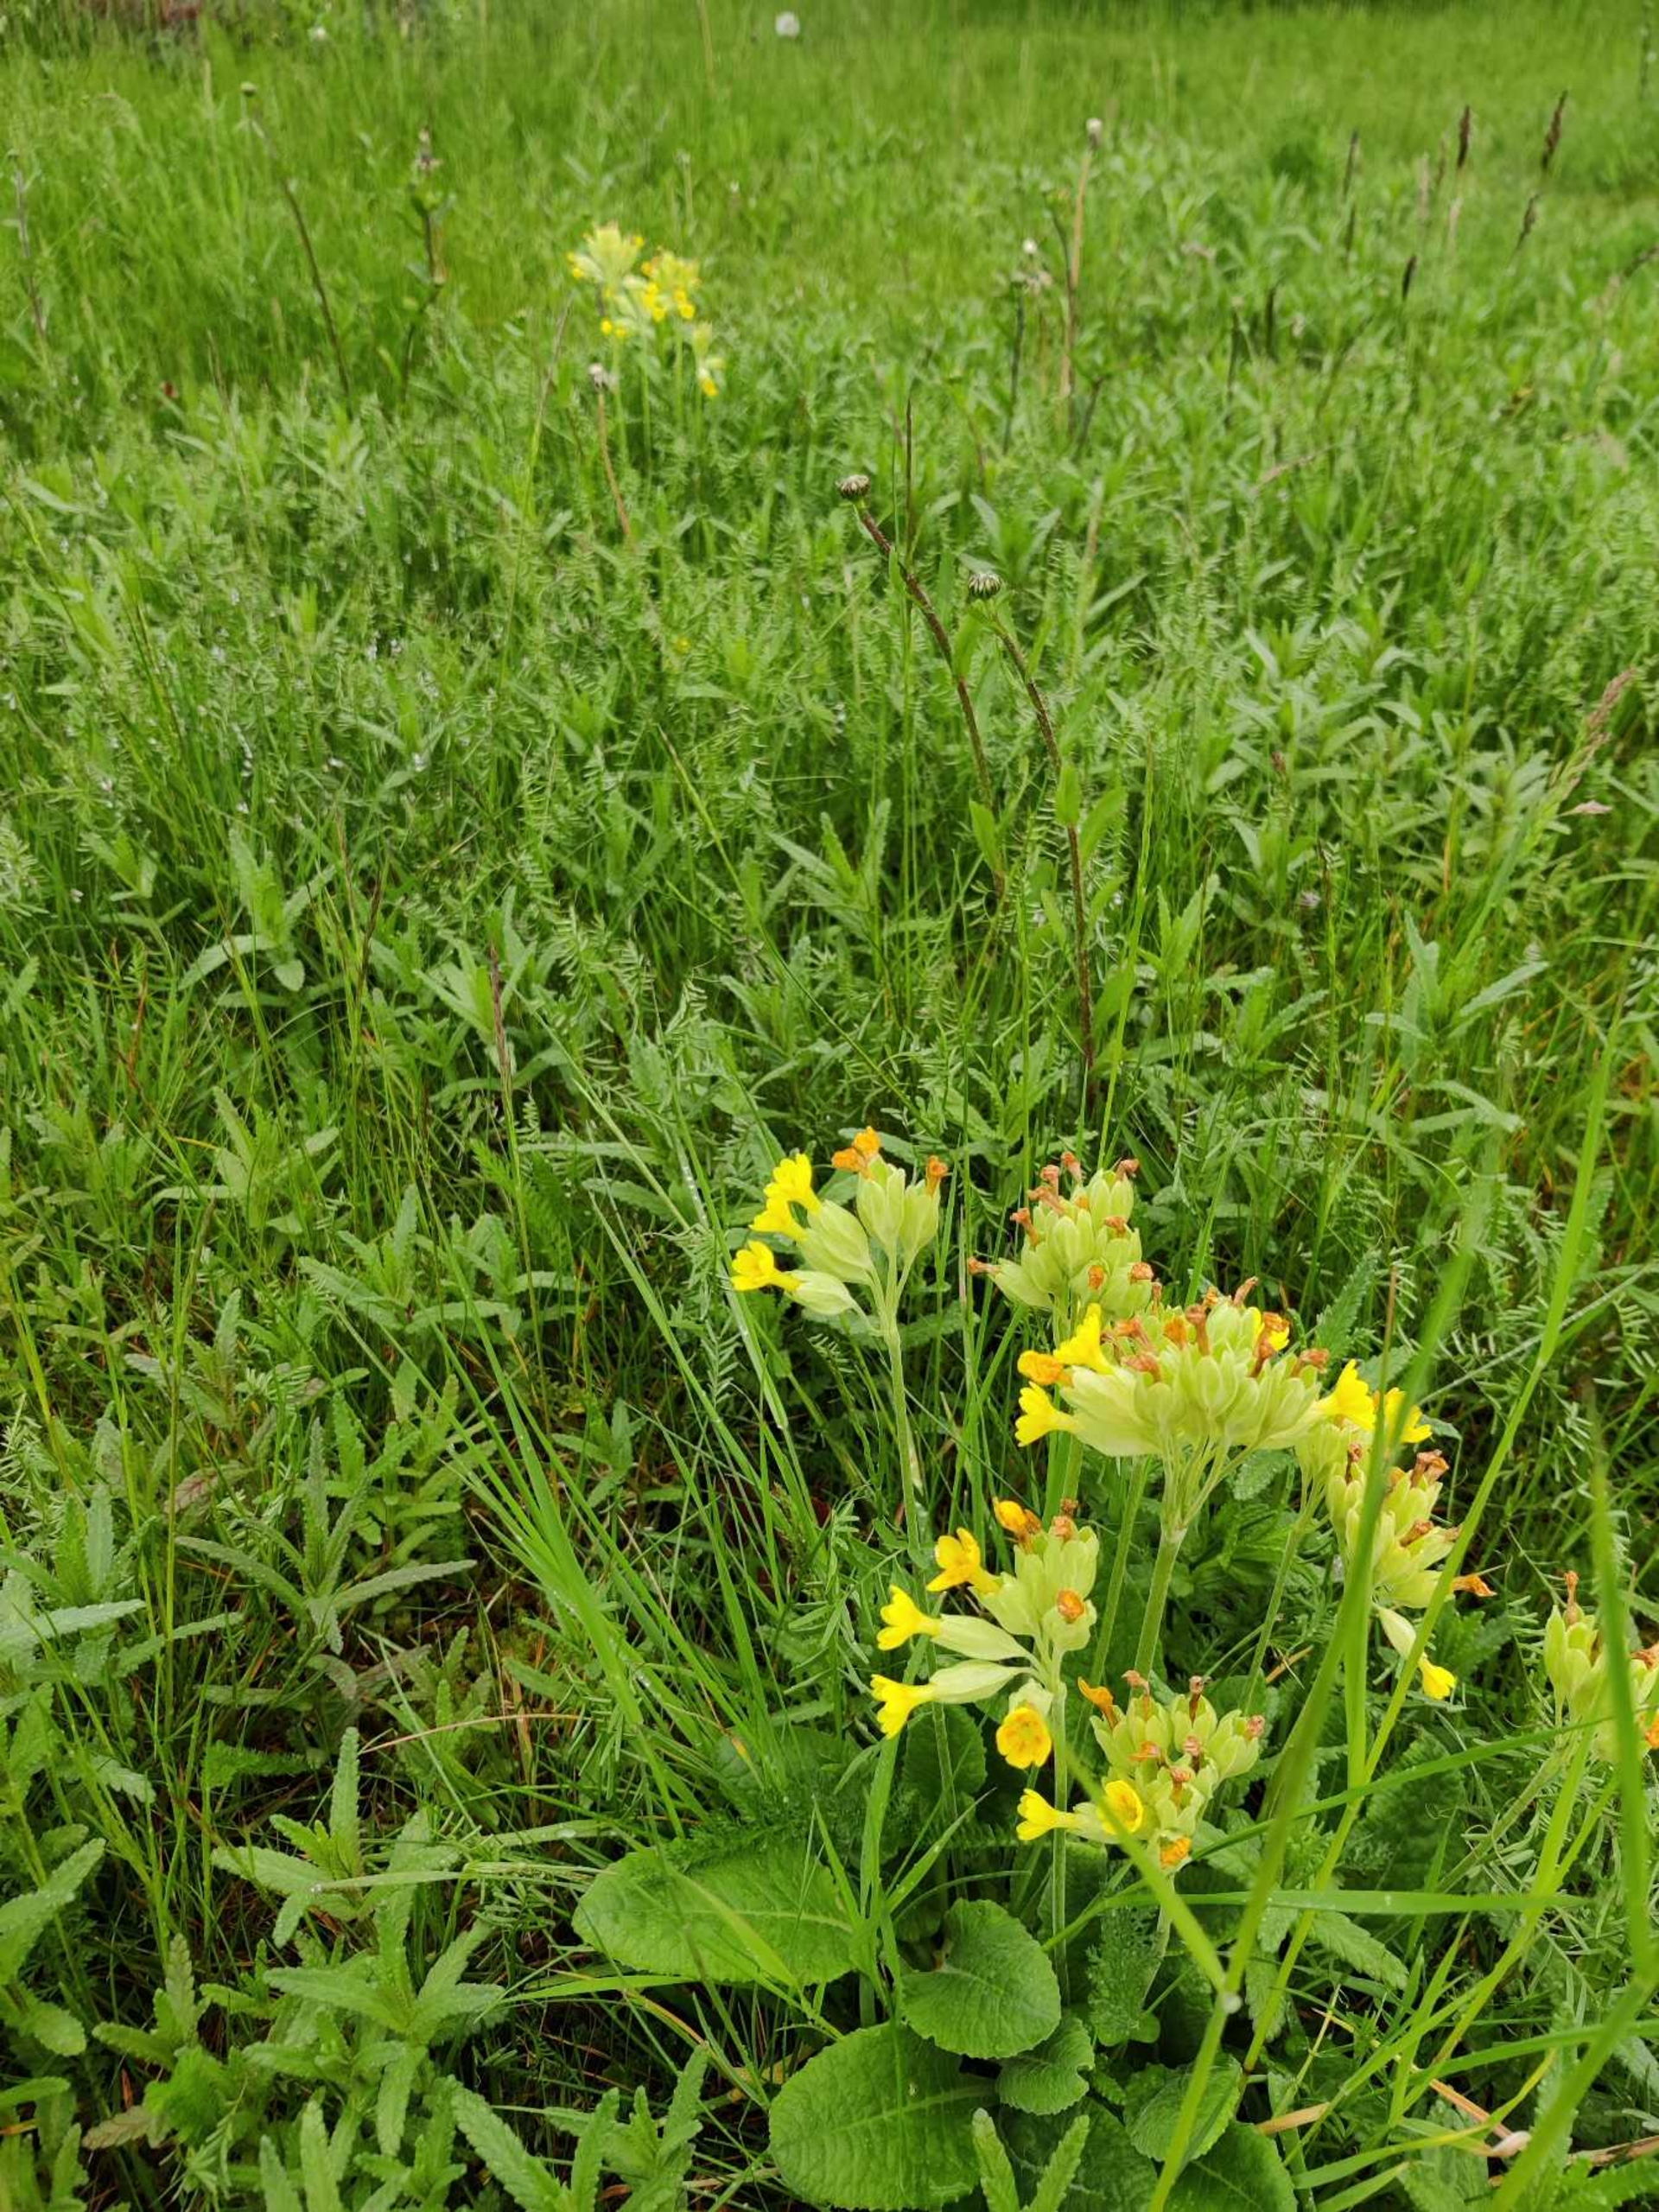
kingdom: Plantae
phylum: Tracheophyta
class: Magnoliopsida
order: Ericales
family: Primulaceae
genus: Primula
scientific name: Primula veris
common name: Hulkravet kodriver
